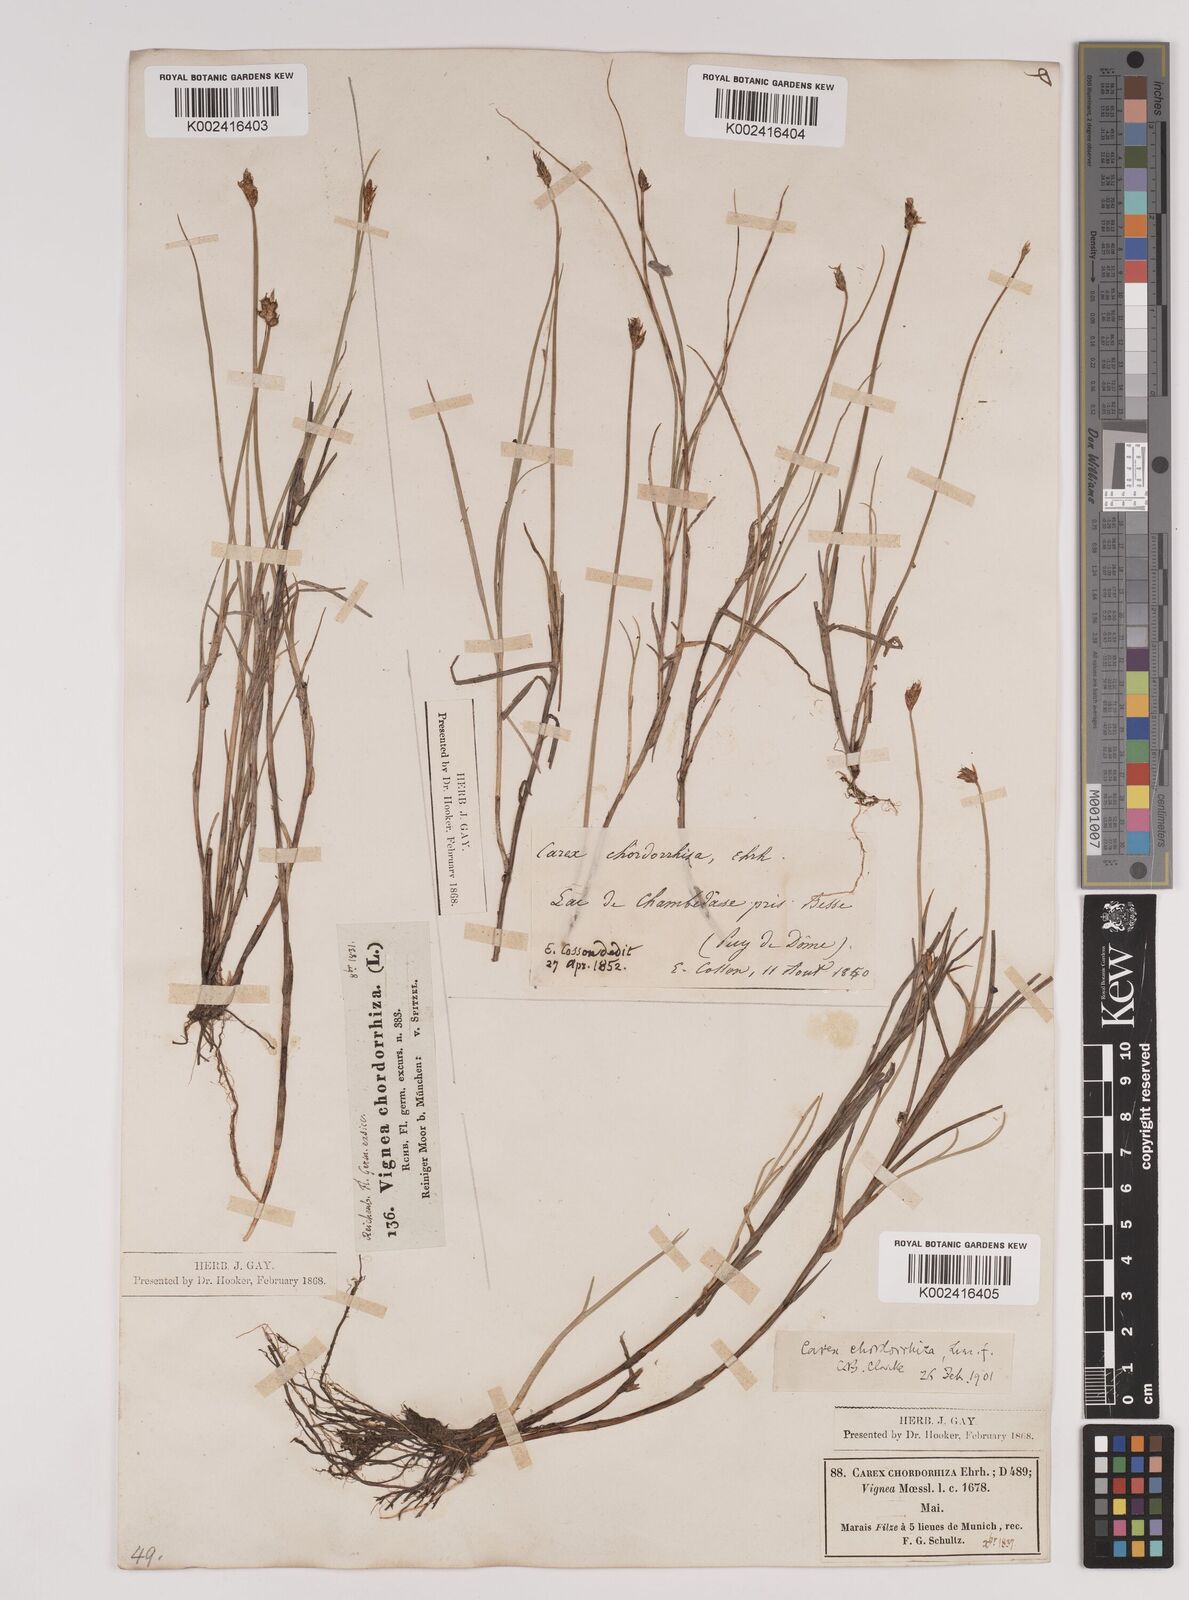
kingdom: Plantae
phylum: Tracheophyta
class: Liliopsida
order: Poales
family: Cyperaceae
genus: Carex
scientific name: Carex chordorrhiza
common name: String sedge
